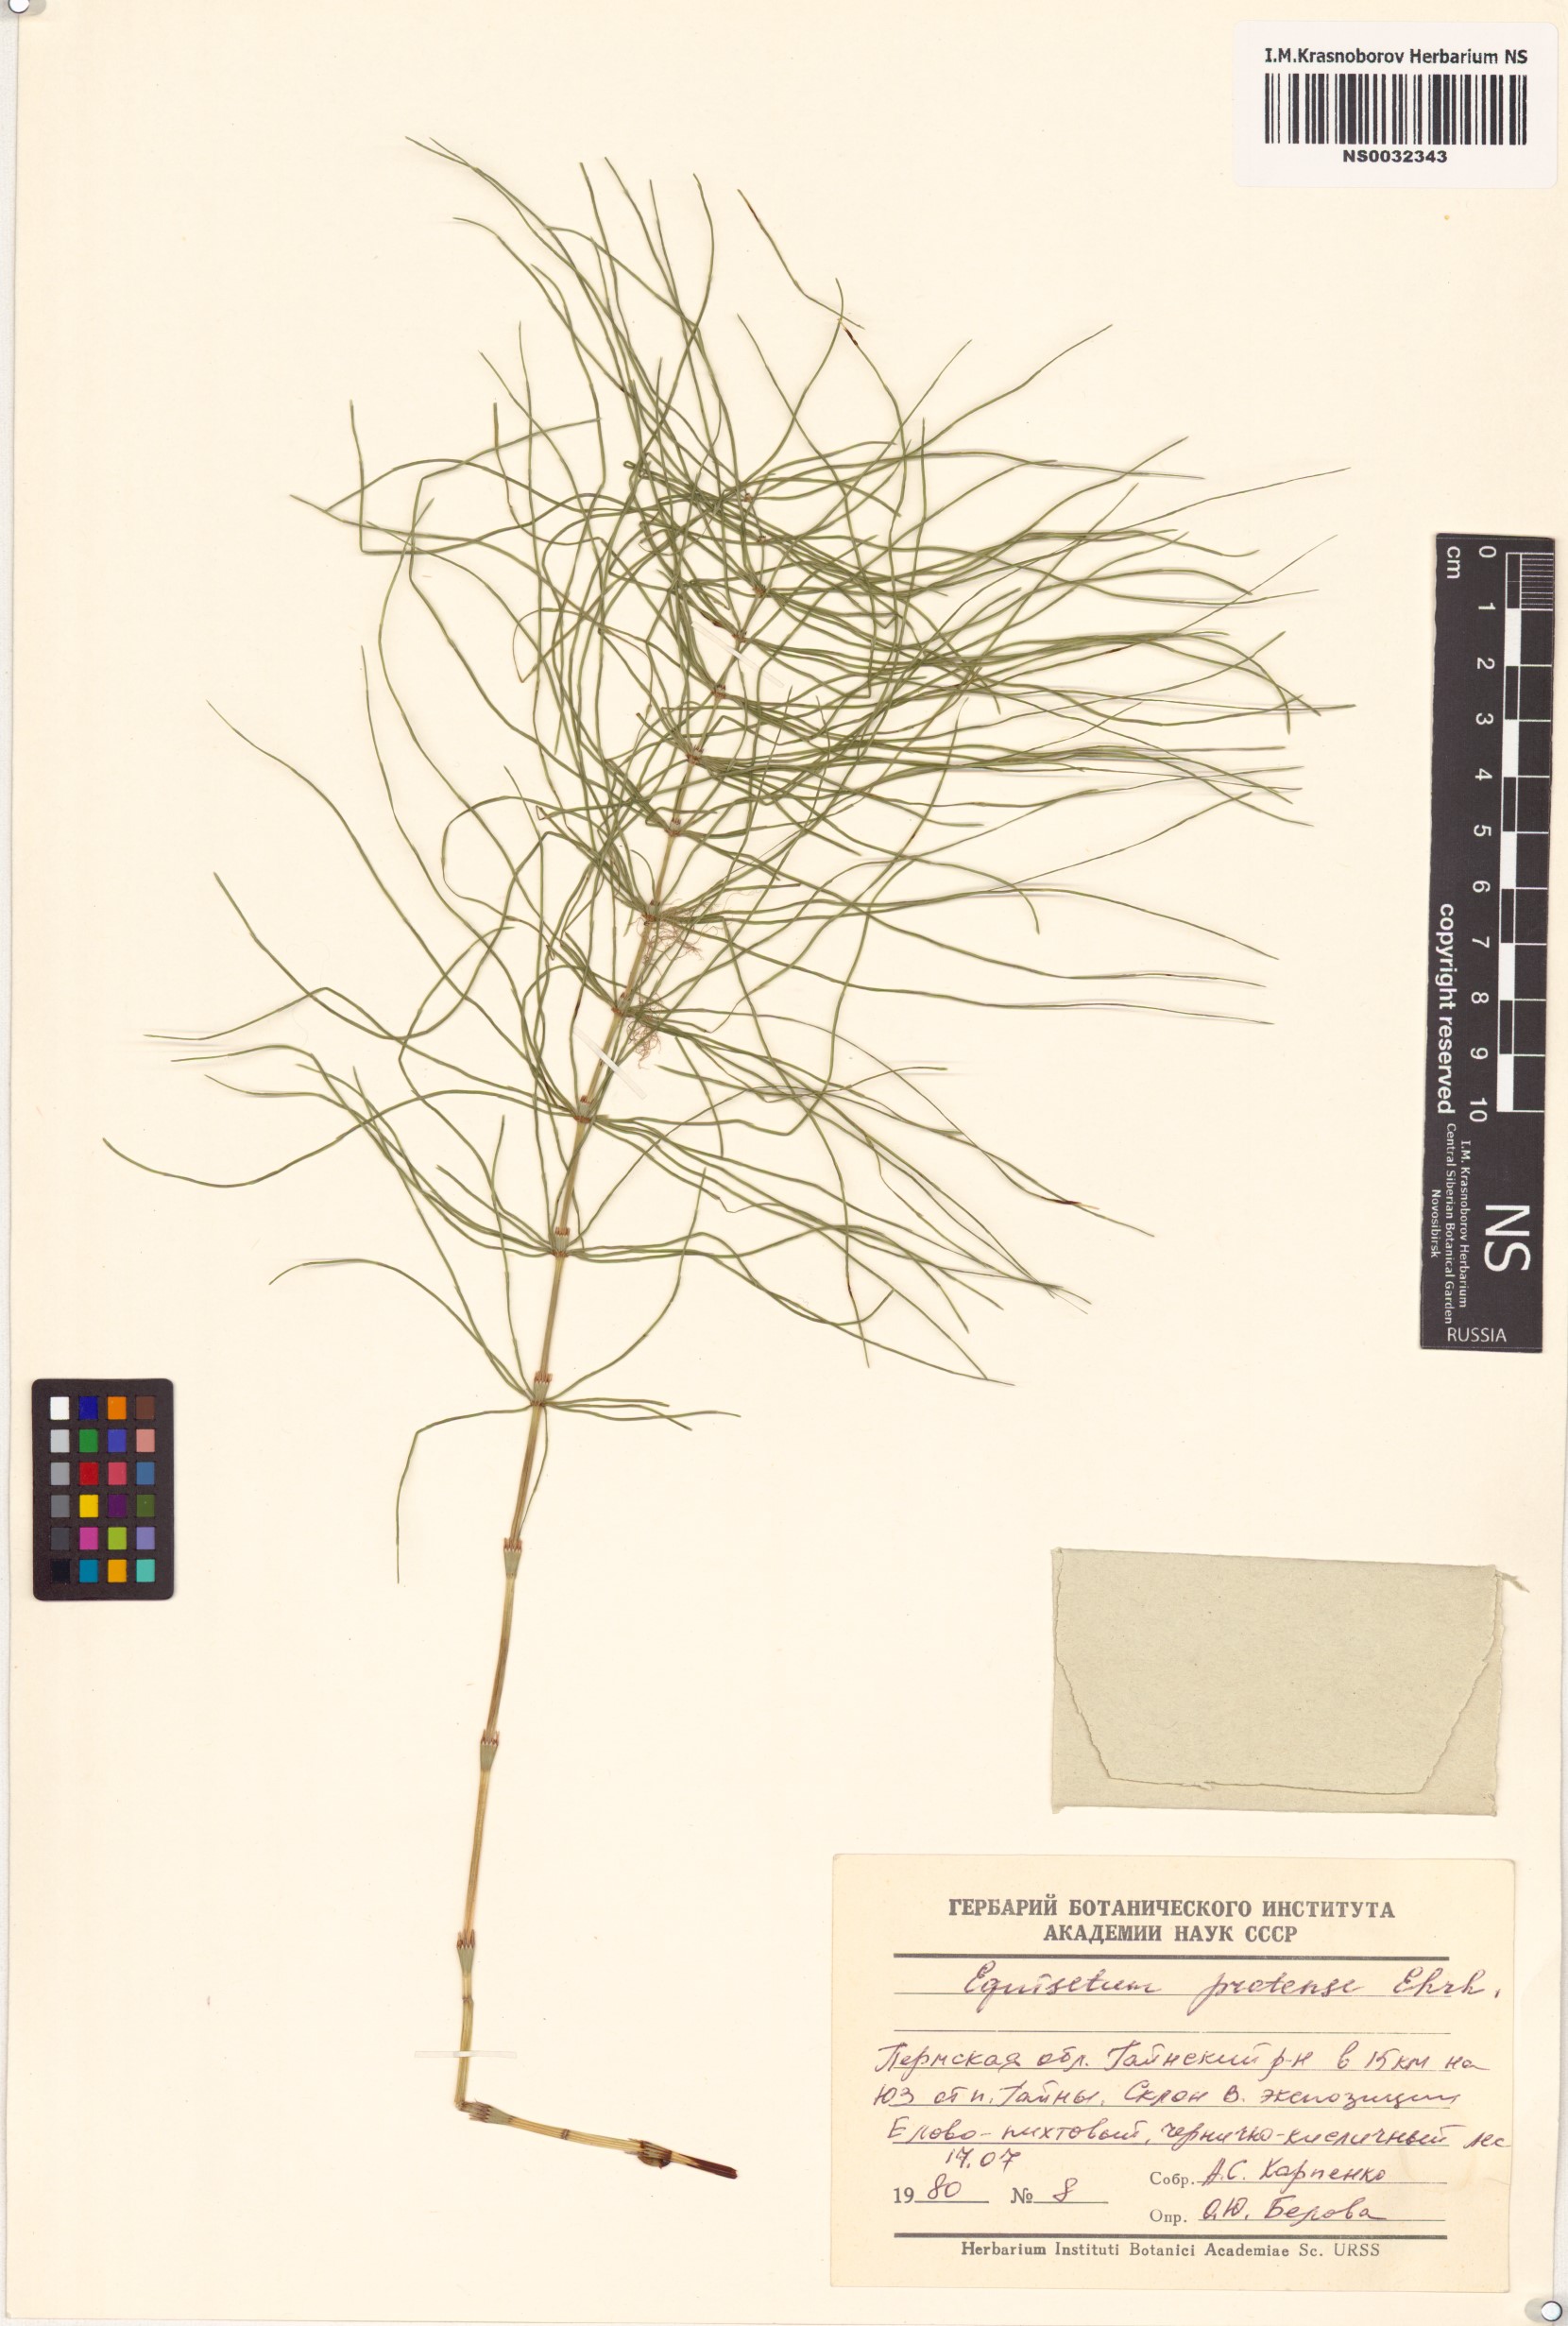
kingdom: Plantae
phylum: Tracheophyta
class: Polypodiopsida
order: Equisetales
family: Equisetaceae
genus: Equisetum
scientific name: Equisetum pratense
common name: Meadow horsetail
